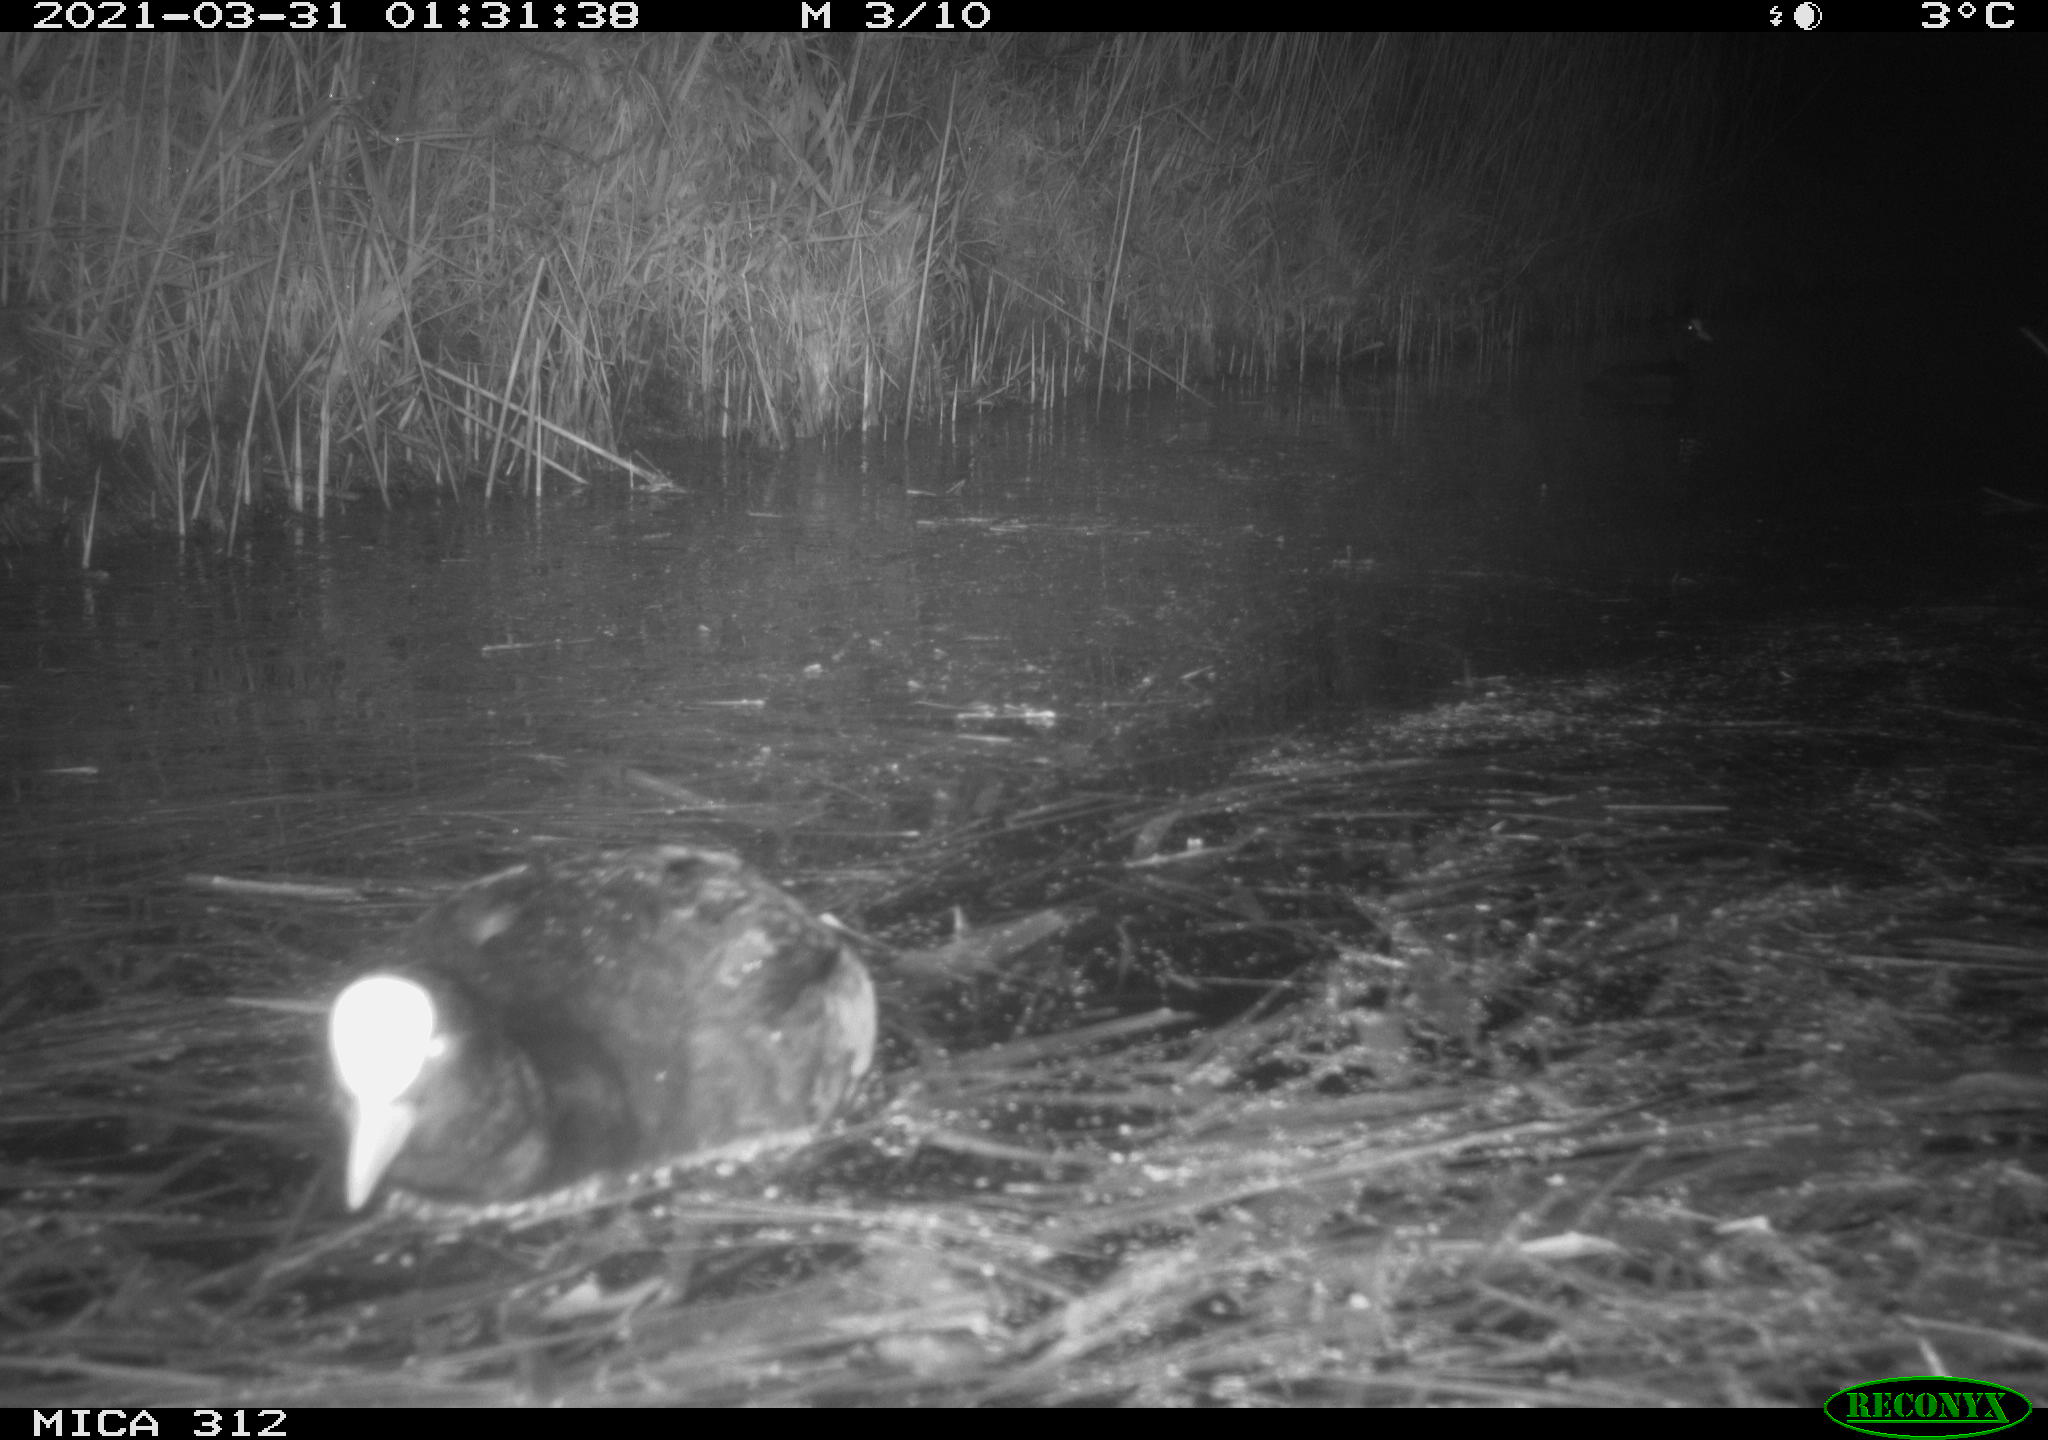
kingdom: Animalia
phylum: Chordata
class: Aves
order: Gruiformes
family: Rallidae
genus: Fulica
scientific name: Fulica atra
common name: Eurasian coot
